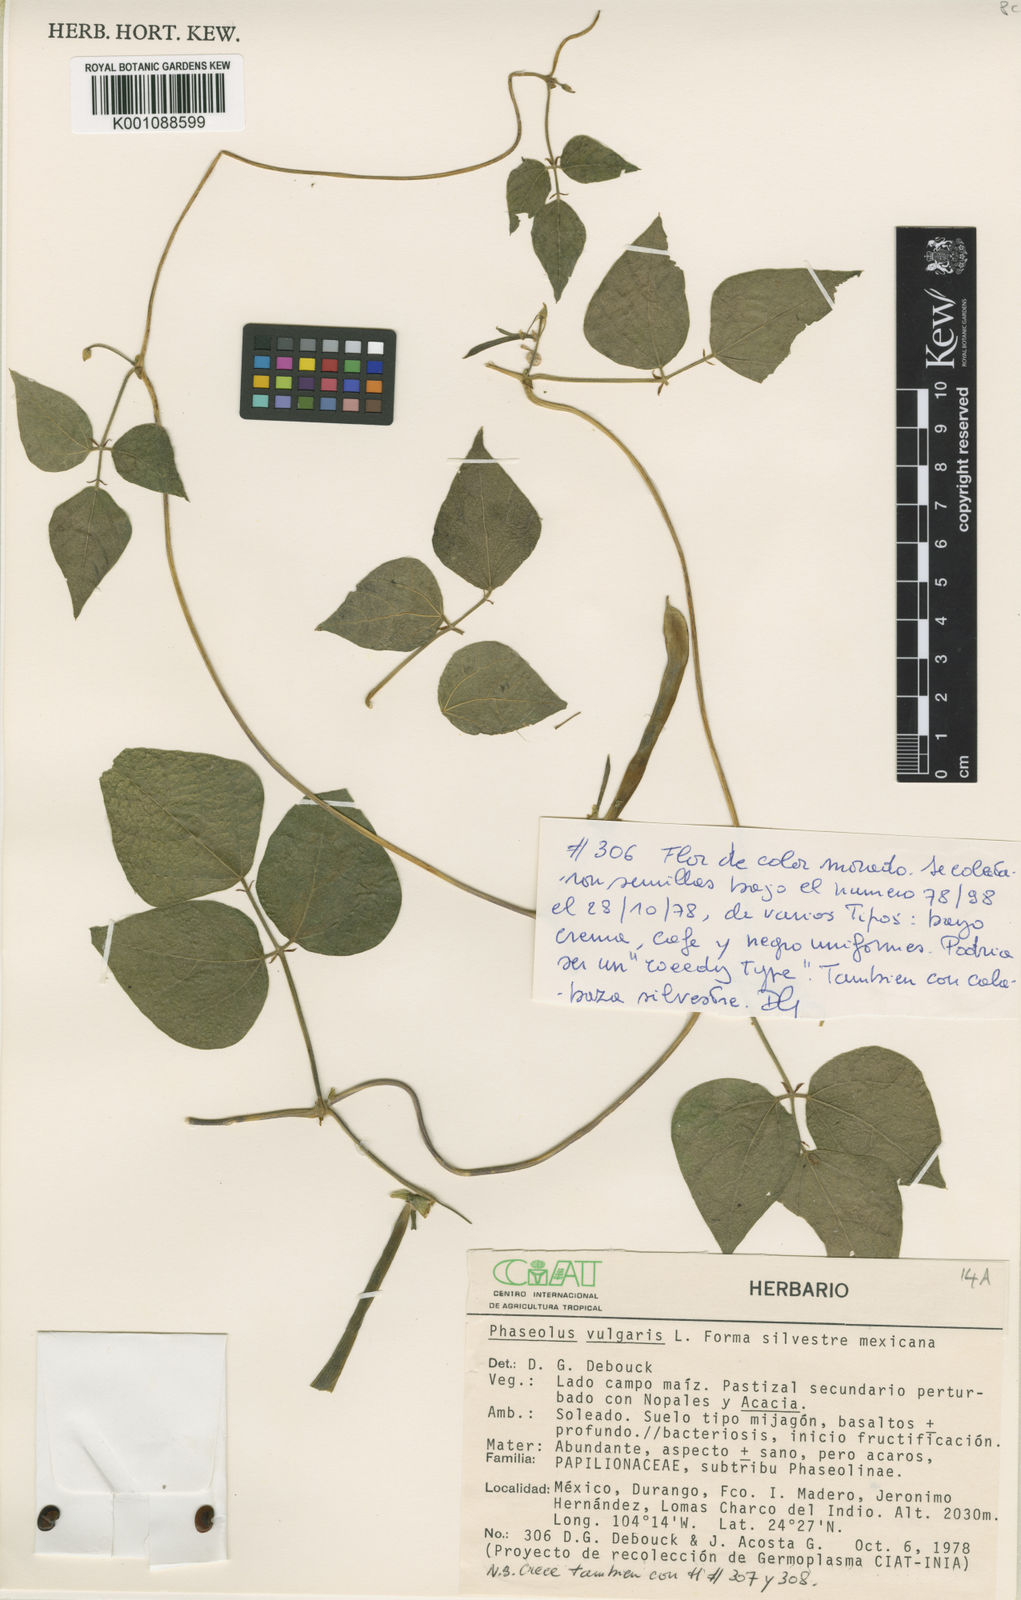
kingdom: Plantae
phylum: Tracheophyta
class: Magnoliopsida
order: Fabales
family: Fabaceae
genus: Phaseolus
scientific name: Phaseolus vulgaris
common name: Bean
